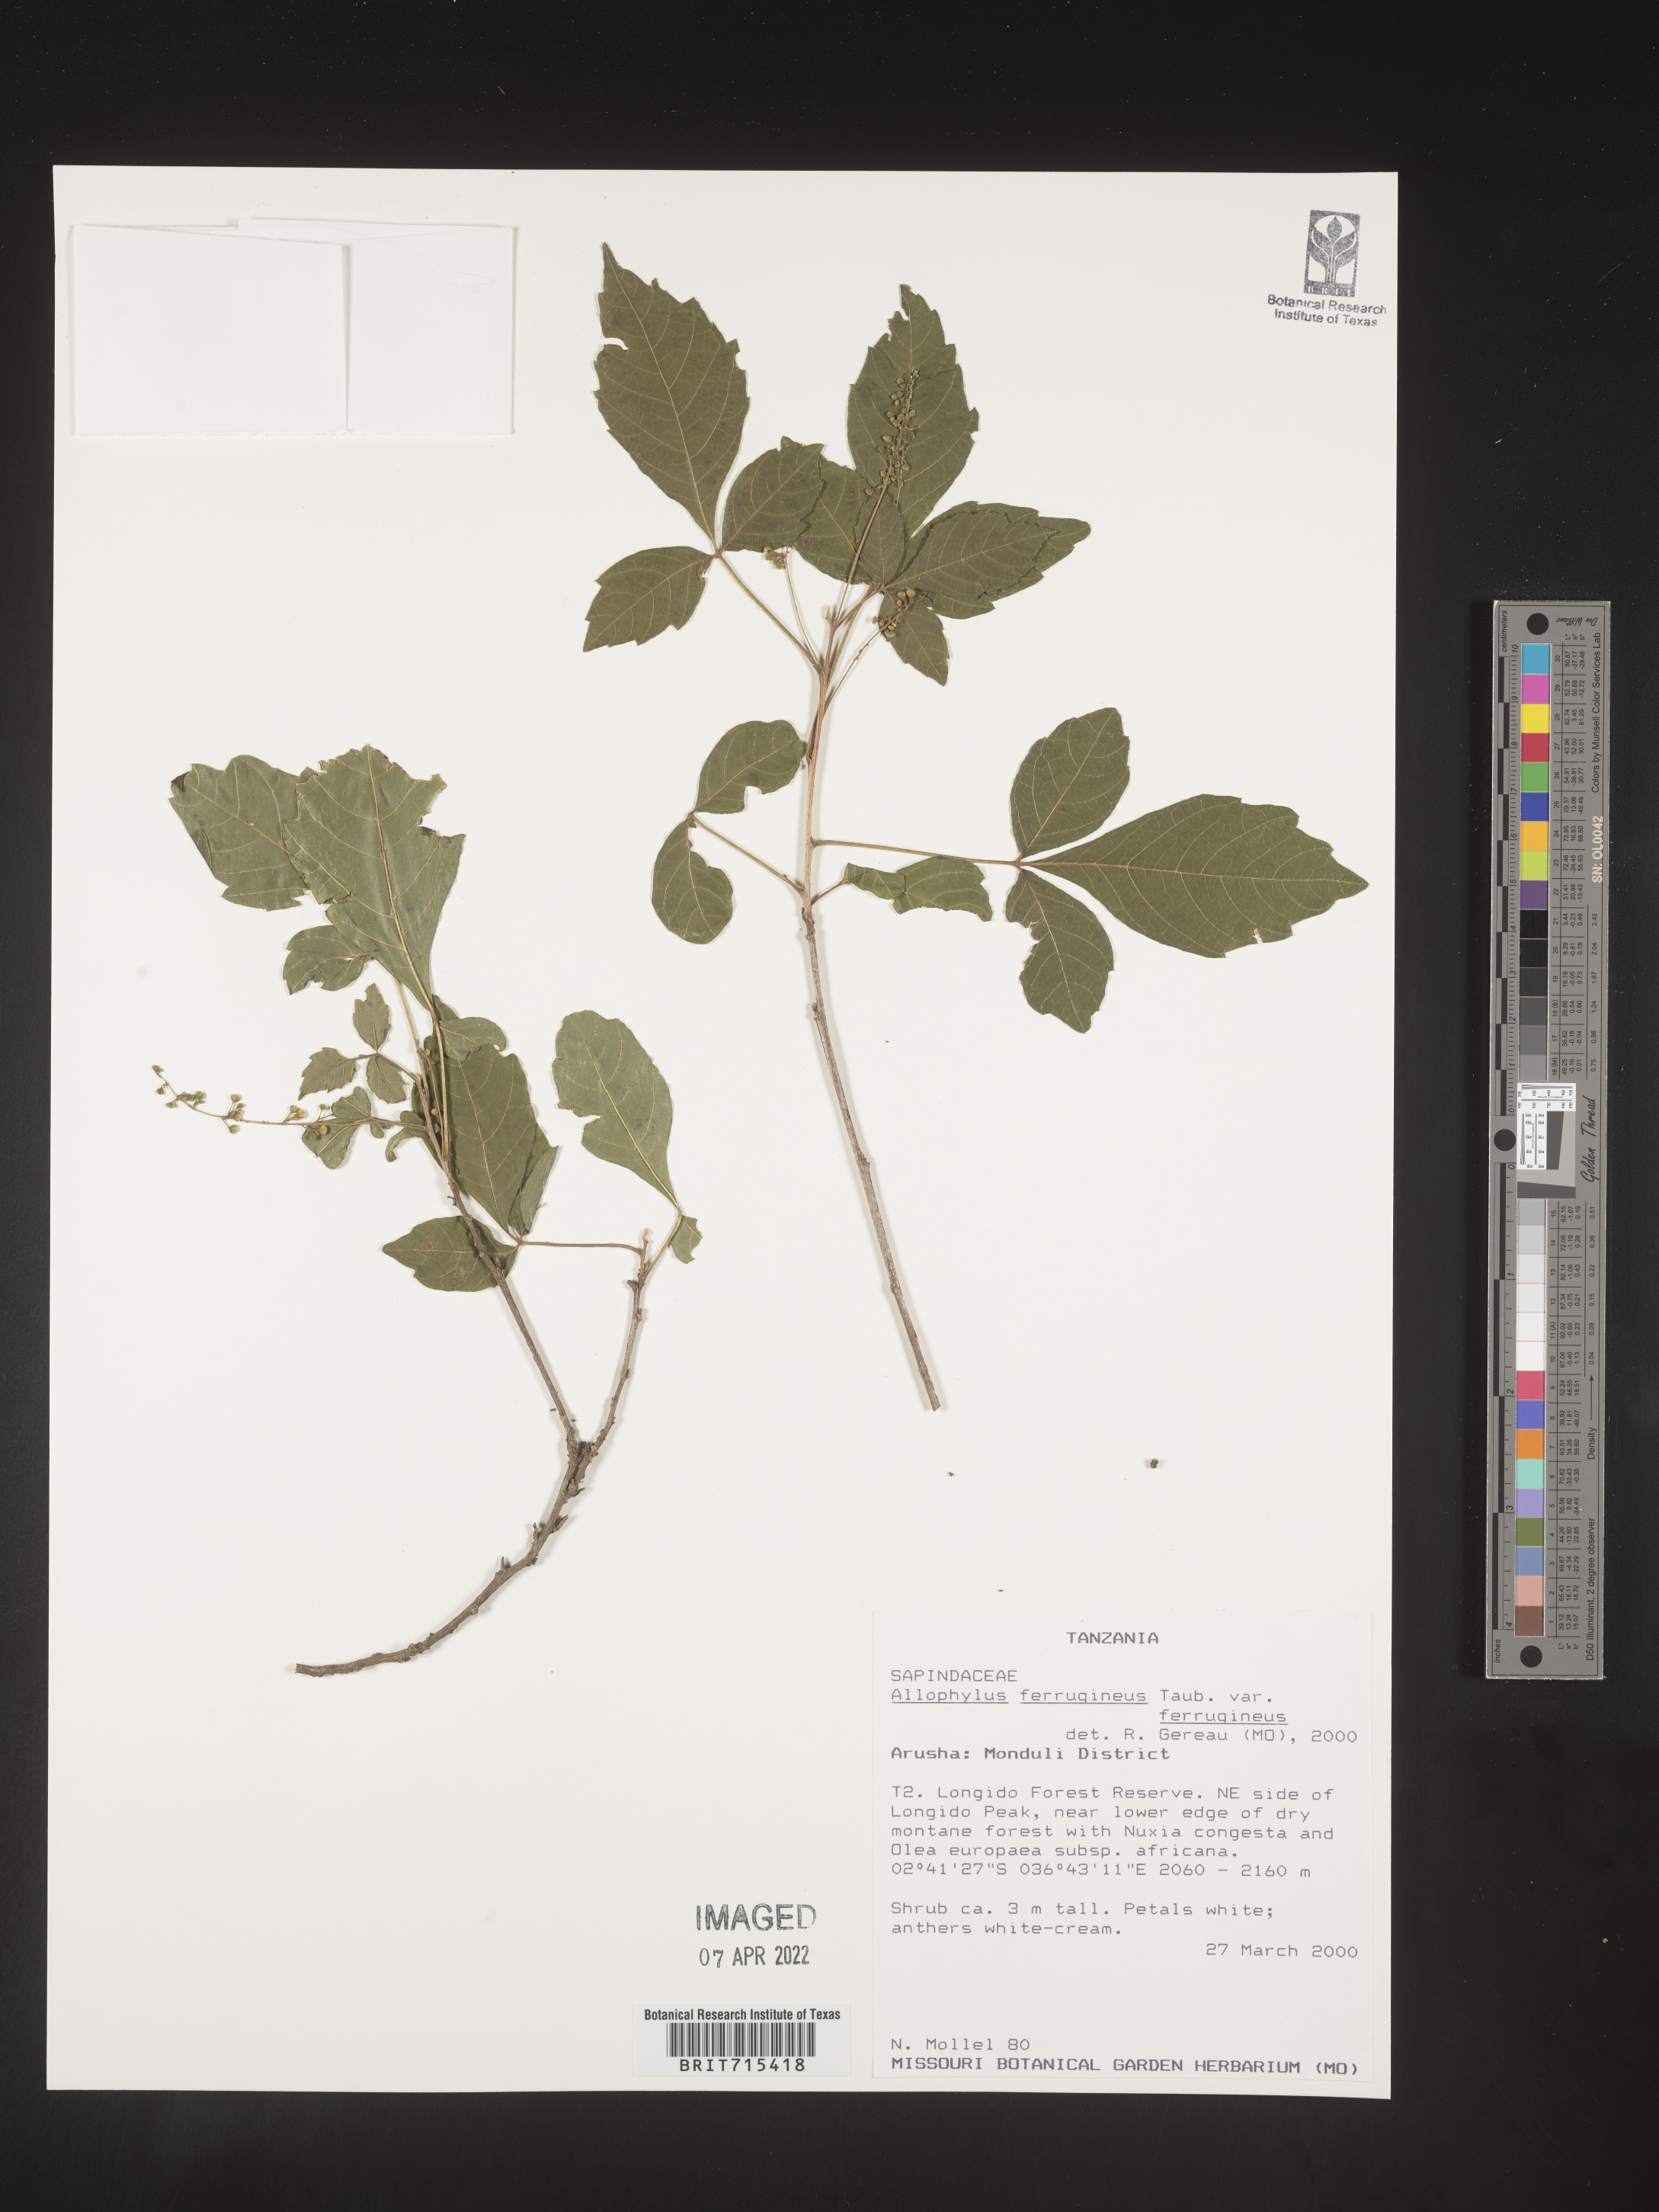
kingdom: Plantae
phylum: Tracheophyta
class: Magnoliopsida
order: Sapindales
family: Sapindaceae
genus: Allophylus
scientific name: Allophylus ferrugineus
